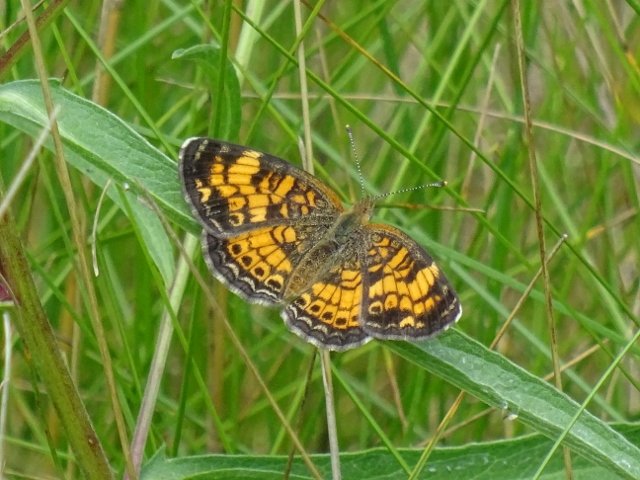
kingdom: Animalia
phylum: Arthropoda
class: Insecta
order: Lepidoptera
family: Nymphalidae
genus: Phyciodes
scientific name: Phyciodes tharos
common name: Northern Crescent
